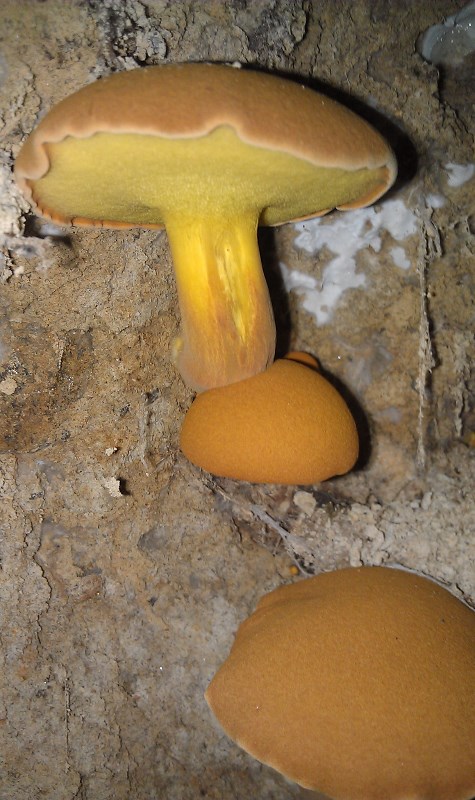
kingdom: Fungi
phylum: Basidiomycota
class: Agaricomycetes
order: Boletales
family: Boletaceae
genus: Buchwaldoboletus
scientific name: Buchwaldoboletus lignicola
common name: stødrørhat
